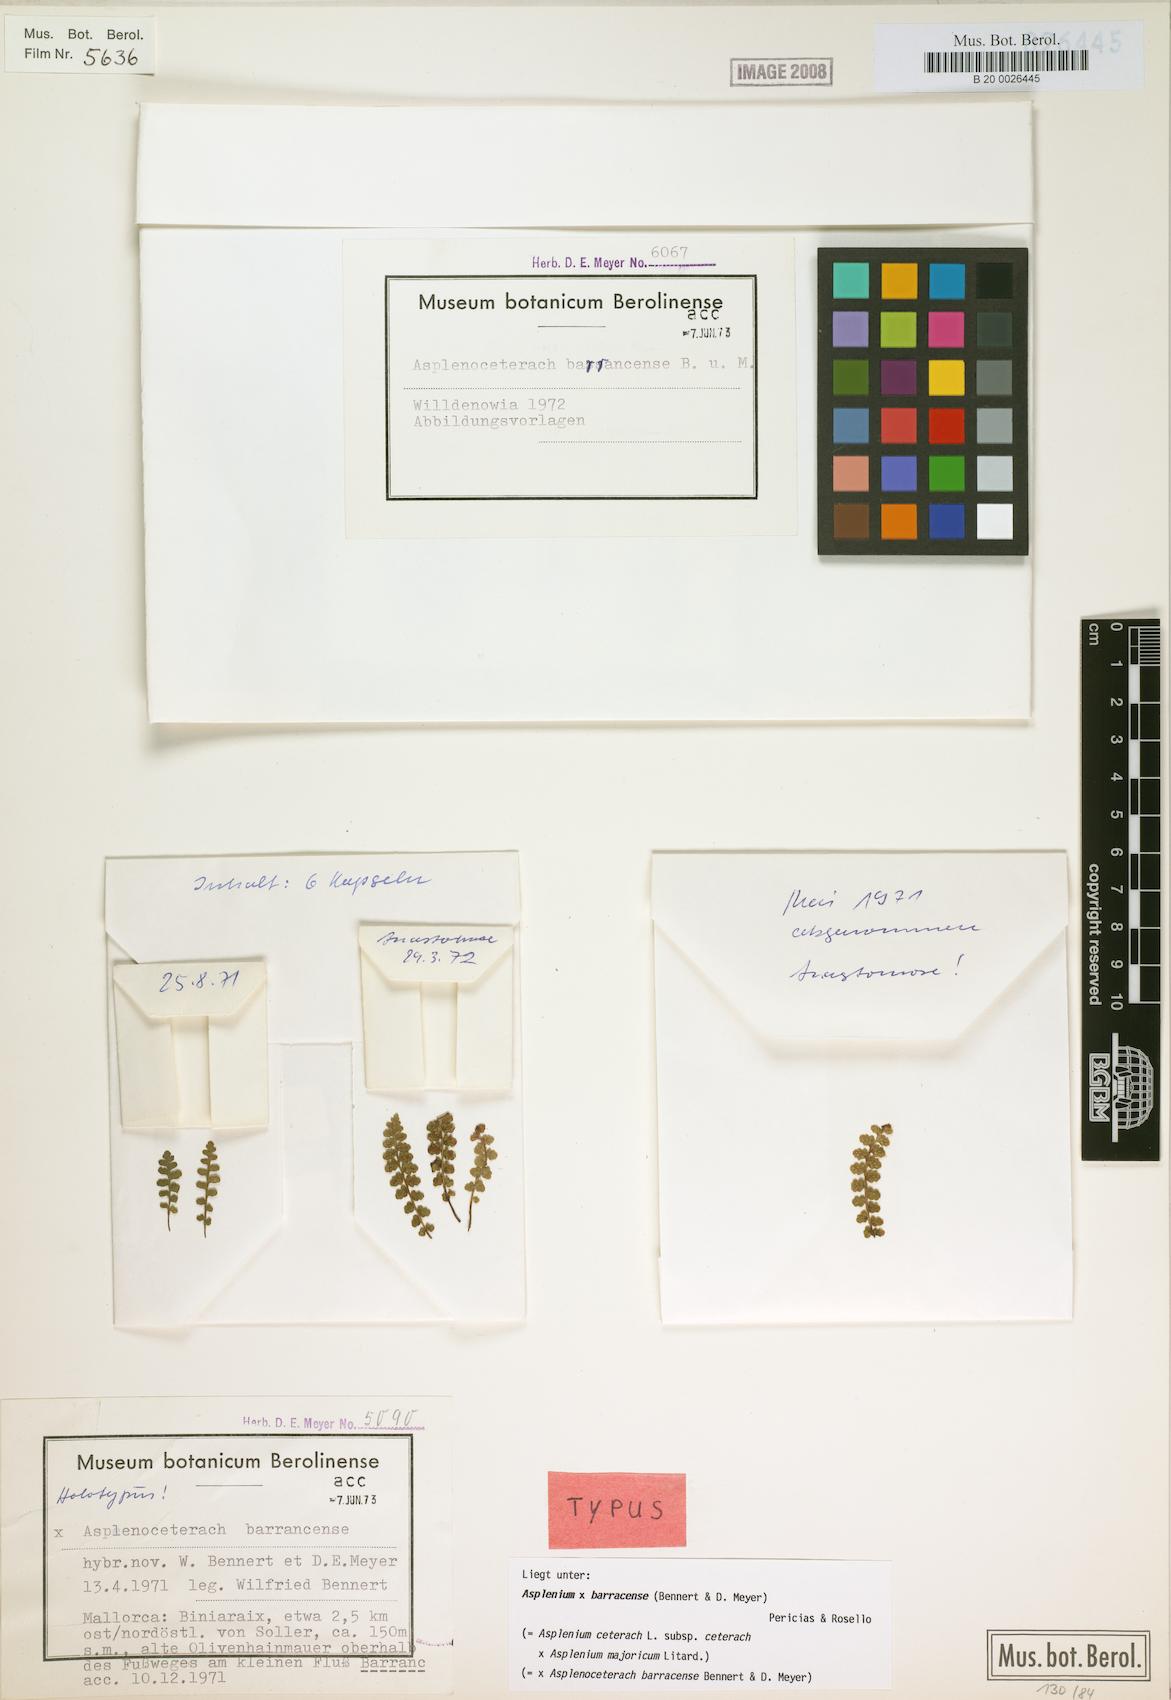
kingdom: Plantae
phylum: Tracheophyta
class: Polypodiopsida
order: Polypodiales
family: Aspleniaceae
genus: Asplenium
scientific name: Asplenium barrancense
